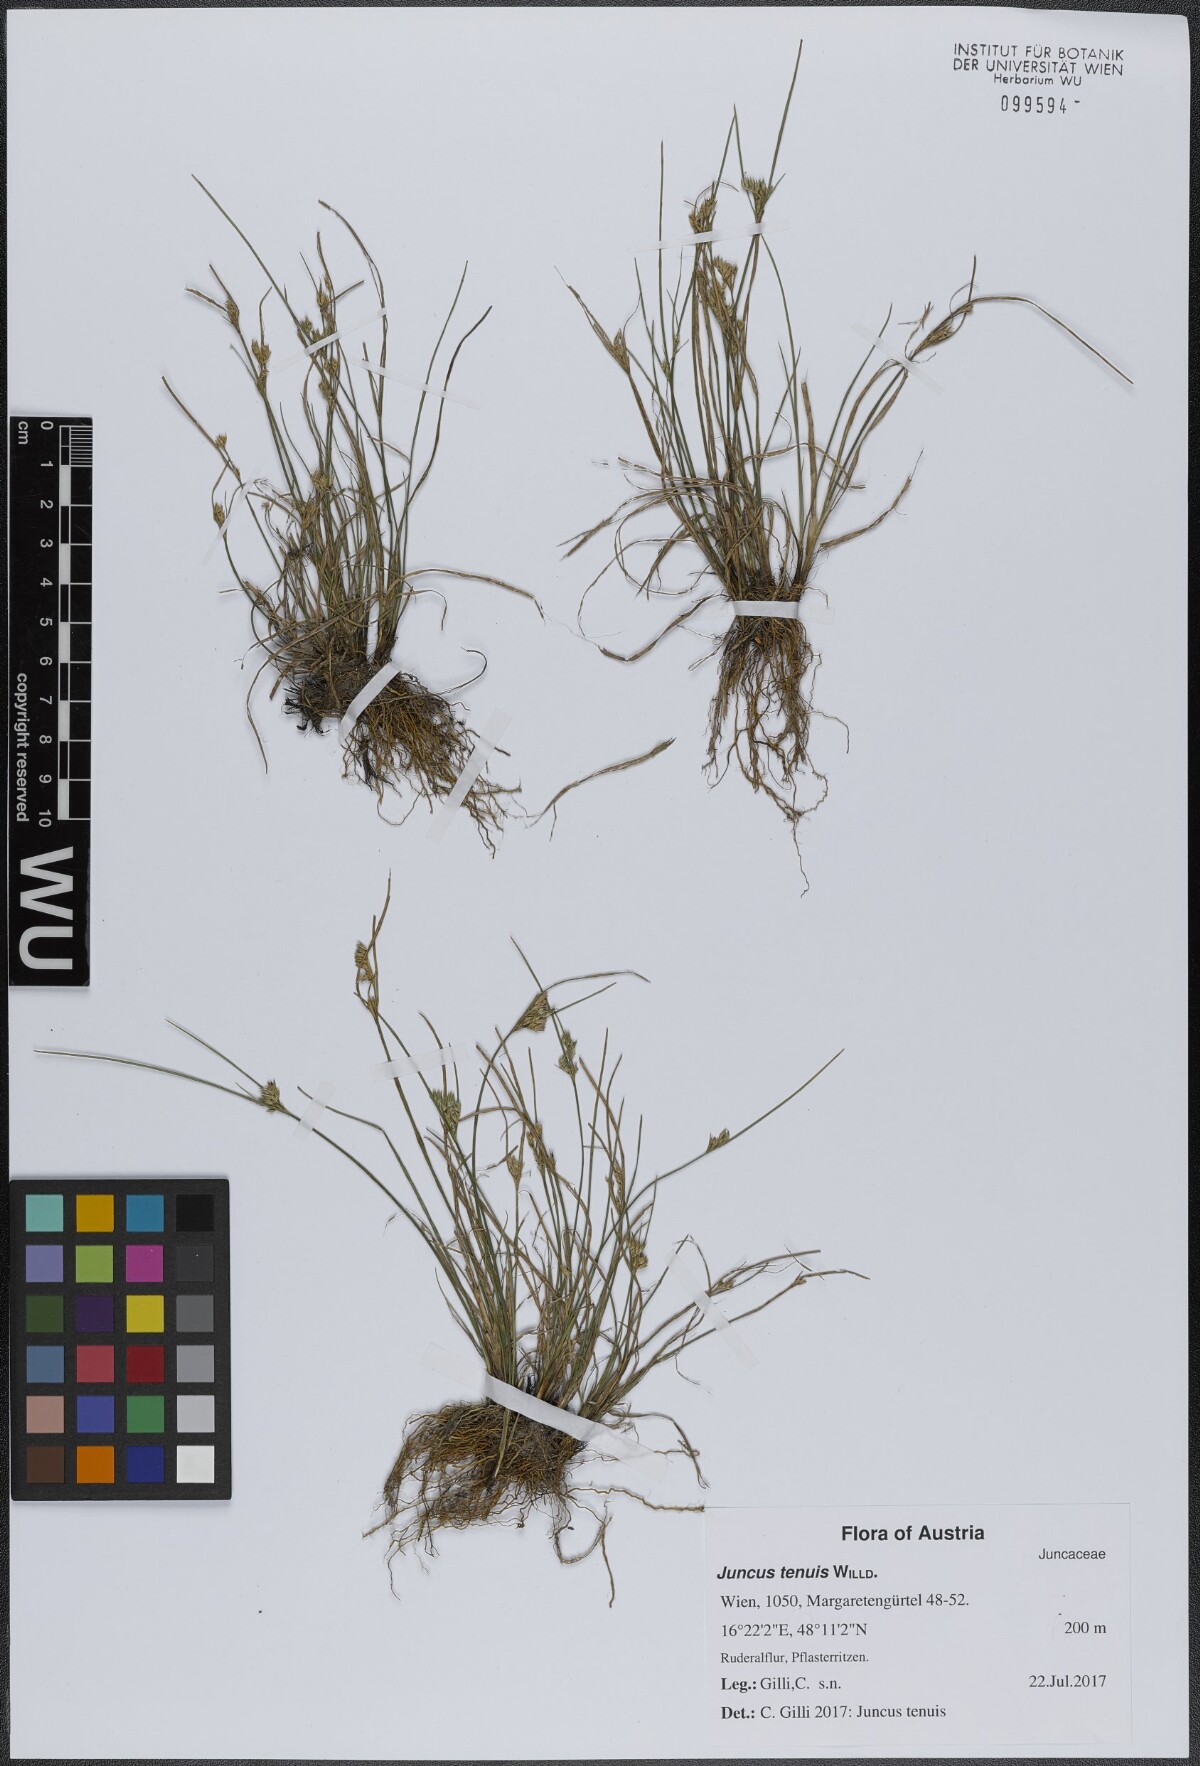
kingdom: Plantae
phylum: Tracheophyta
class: Liliopsida
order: Poales
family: Juncaceae
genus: Juncus
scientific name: Juncus tenuis
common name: Slender rush
